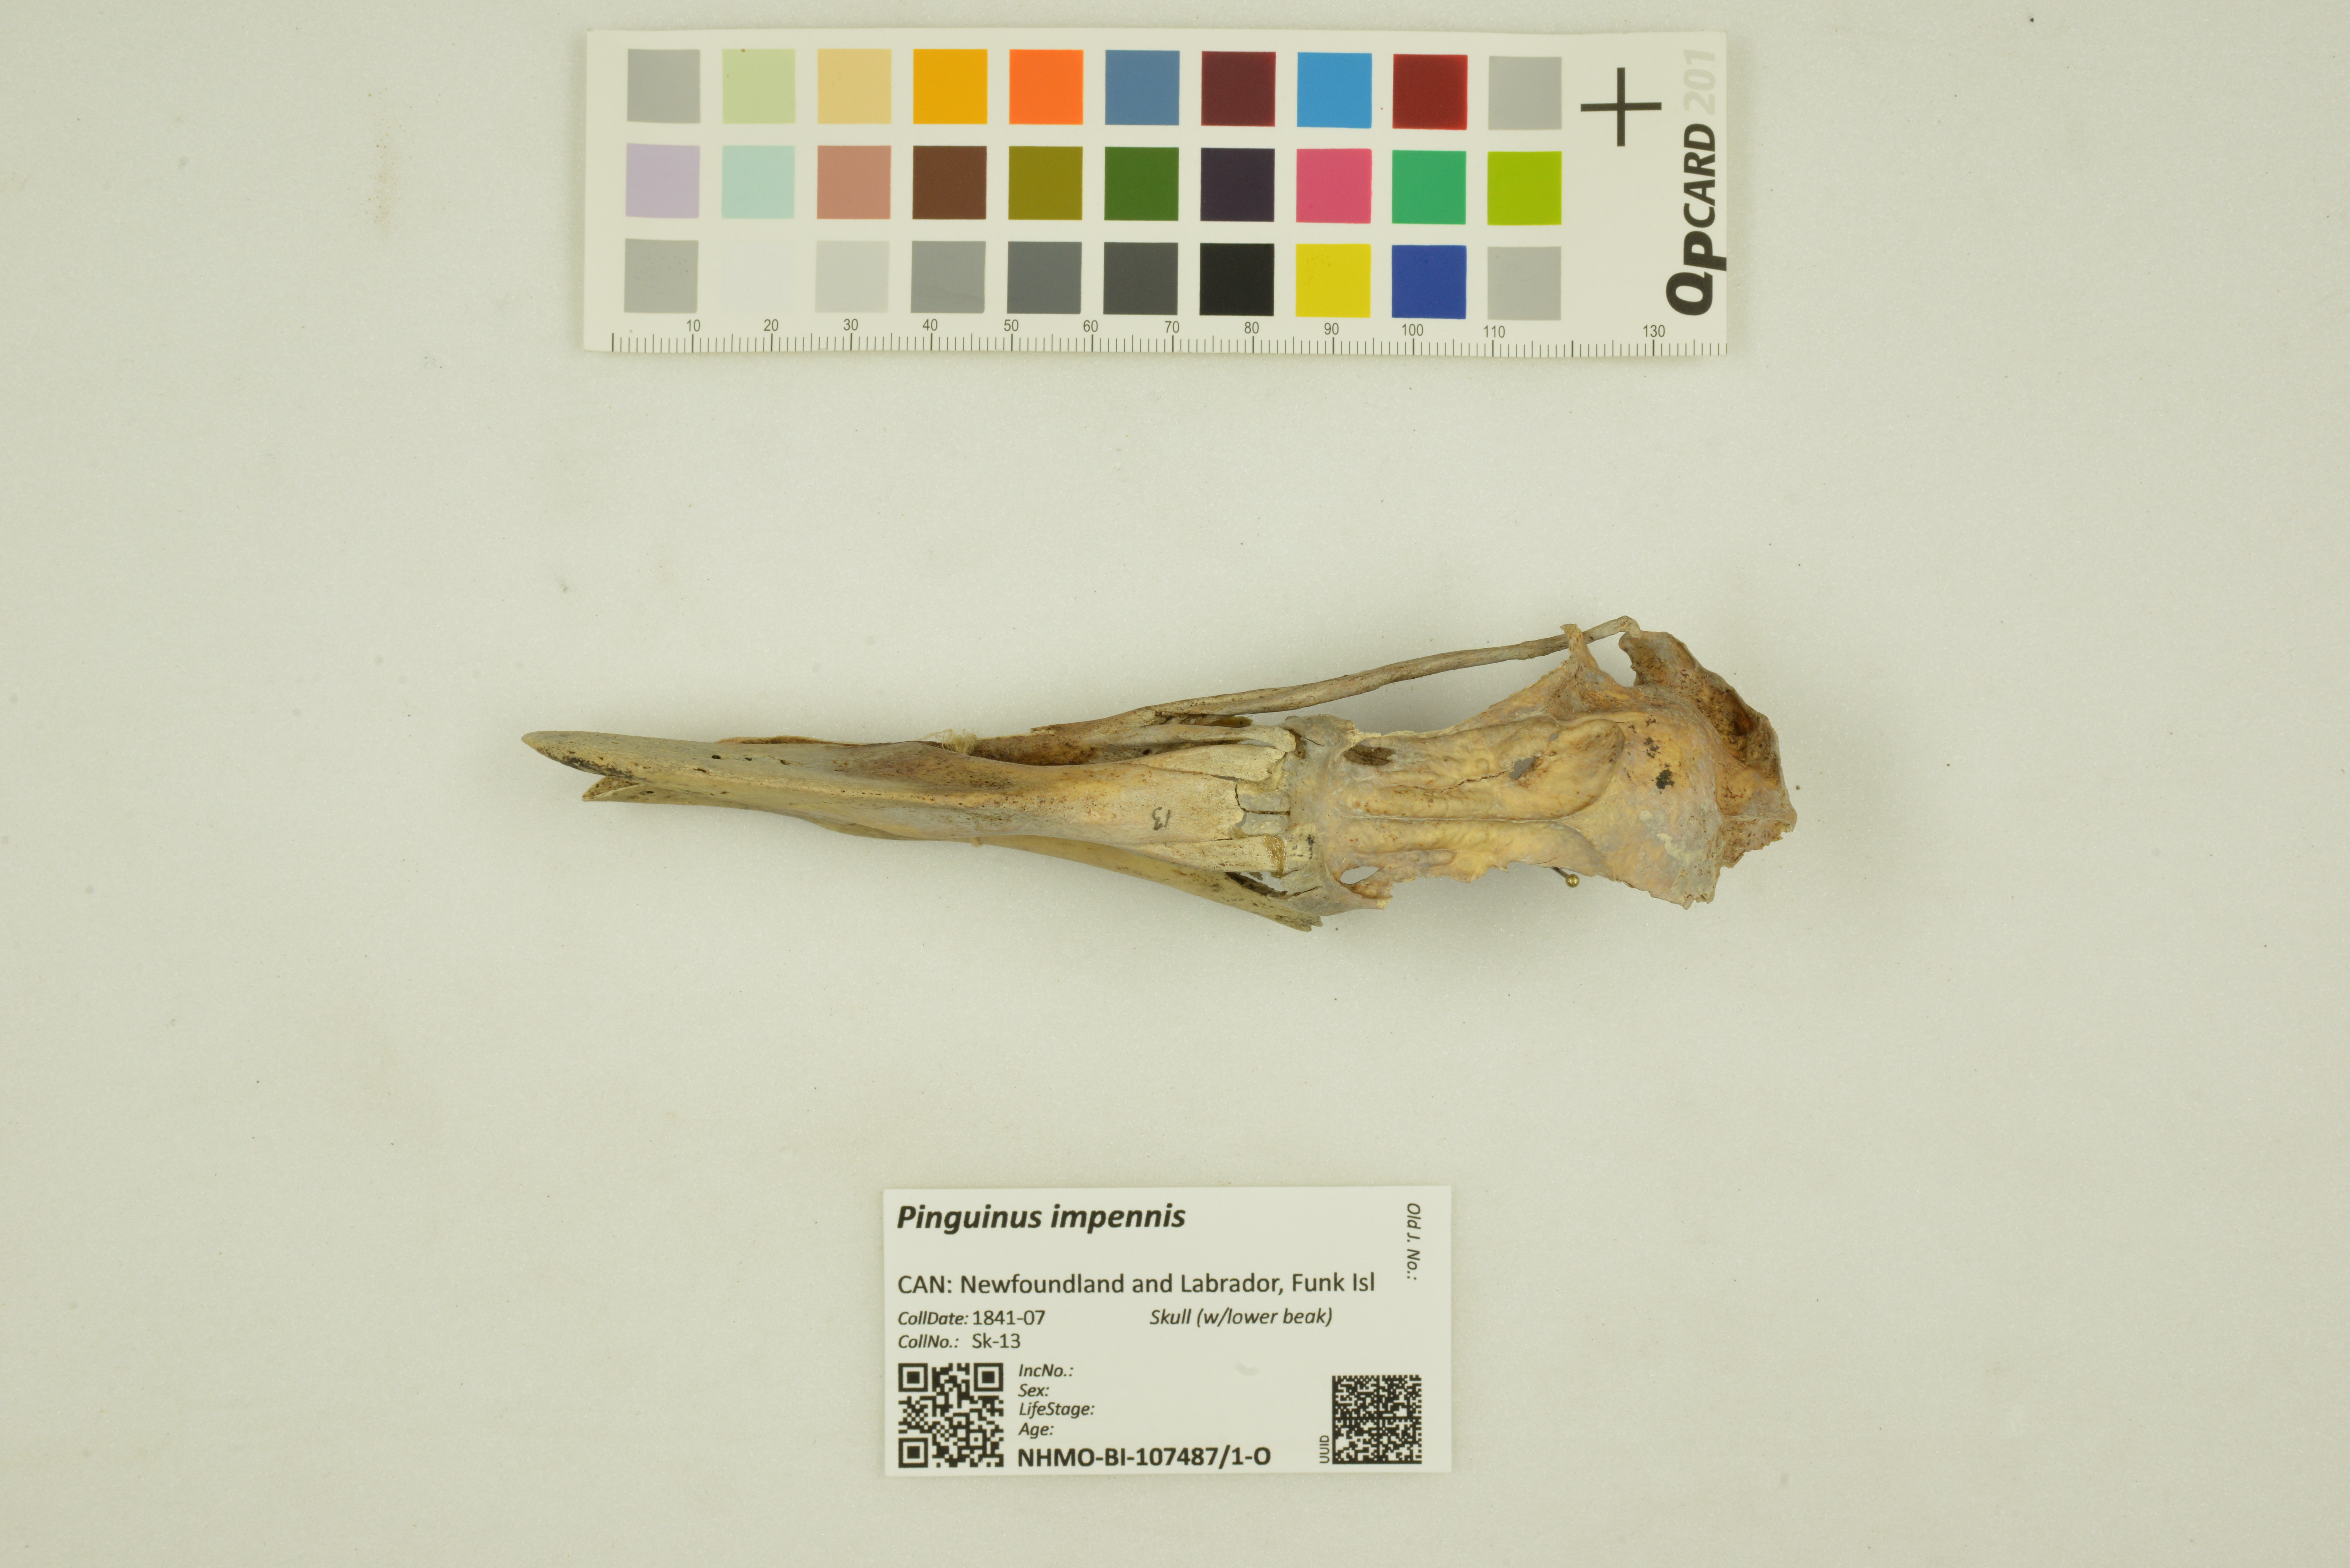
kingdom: Animalia
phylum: Chordata
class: Aves
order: Charadriiformes
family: Alcidae
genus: Pinguinus
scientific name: Pinguinus impennis
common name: Great auk
